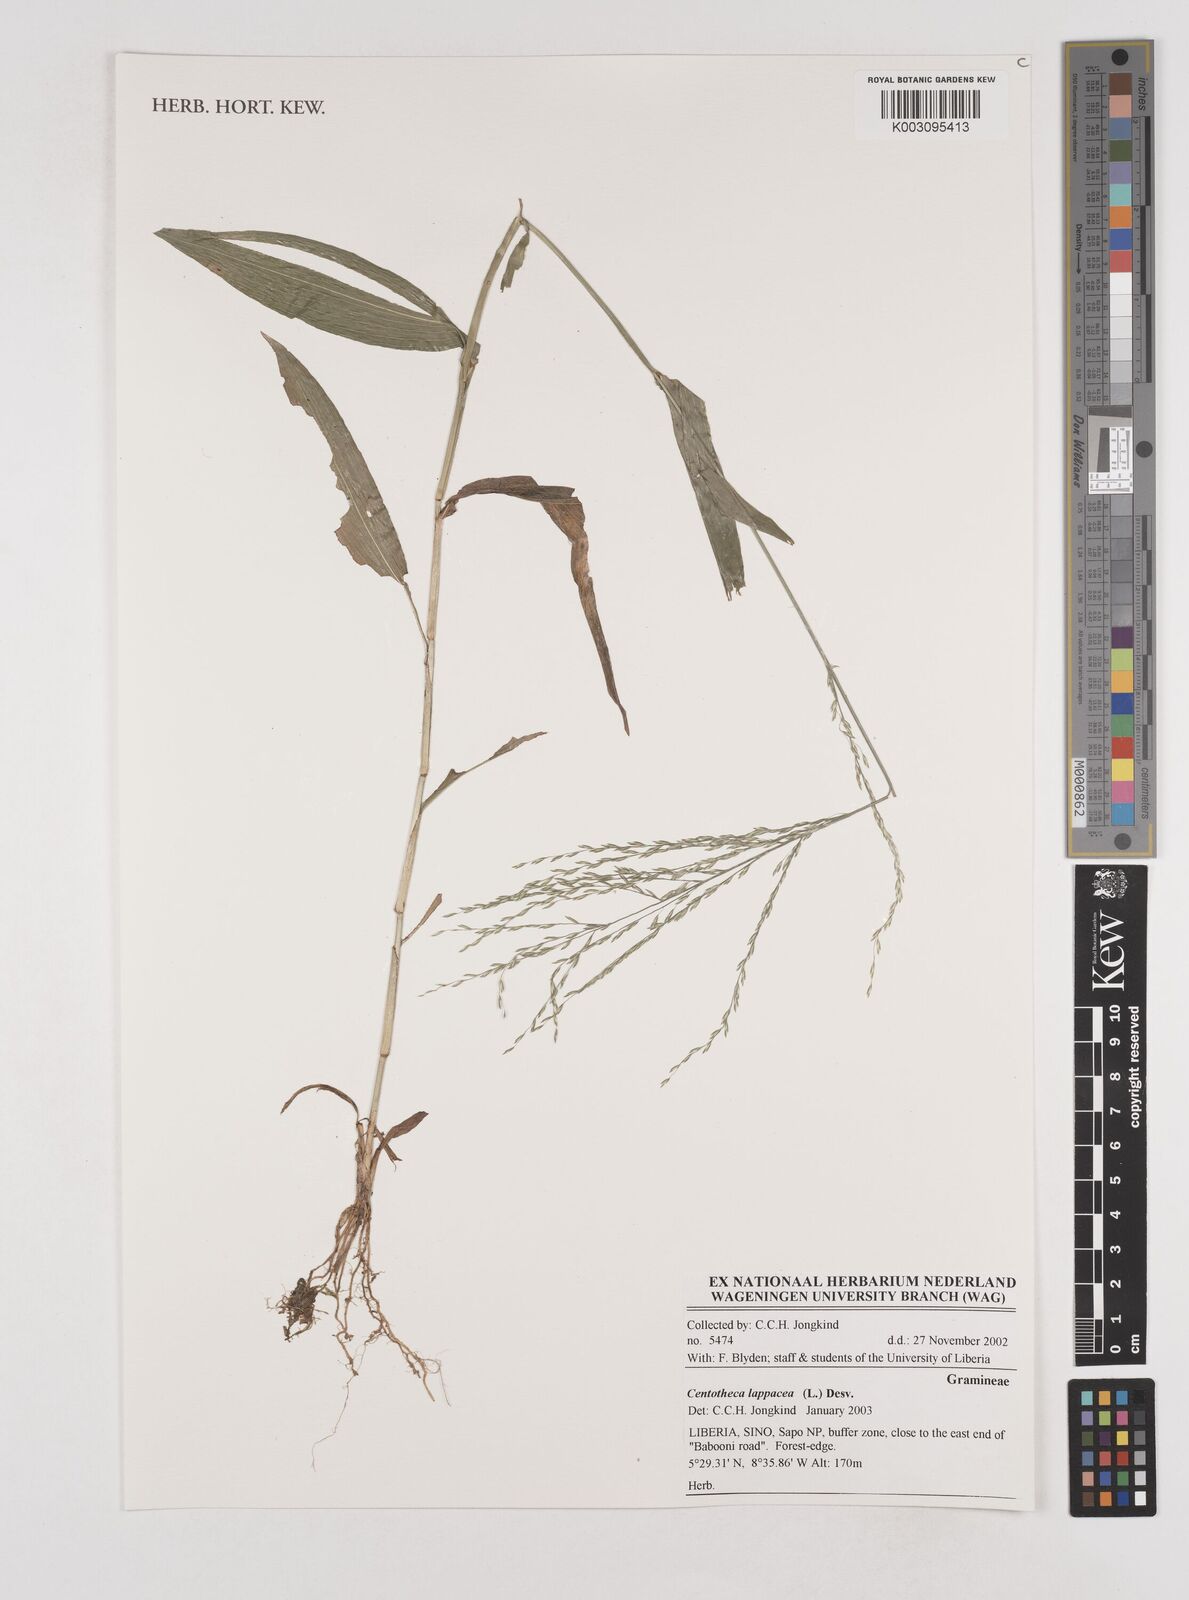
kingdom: Plantae
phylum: Tracheophyta
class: Liliopsida
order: Poales
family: Poaceae
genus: Centotheca
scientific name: Centotheca lappacea
